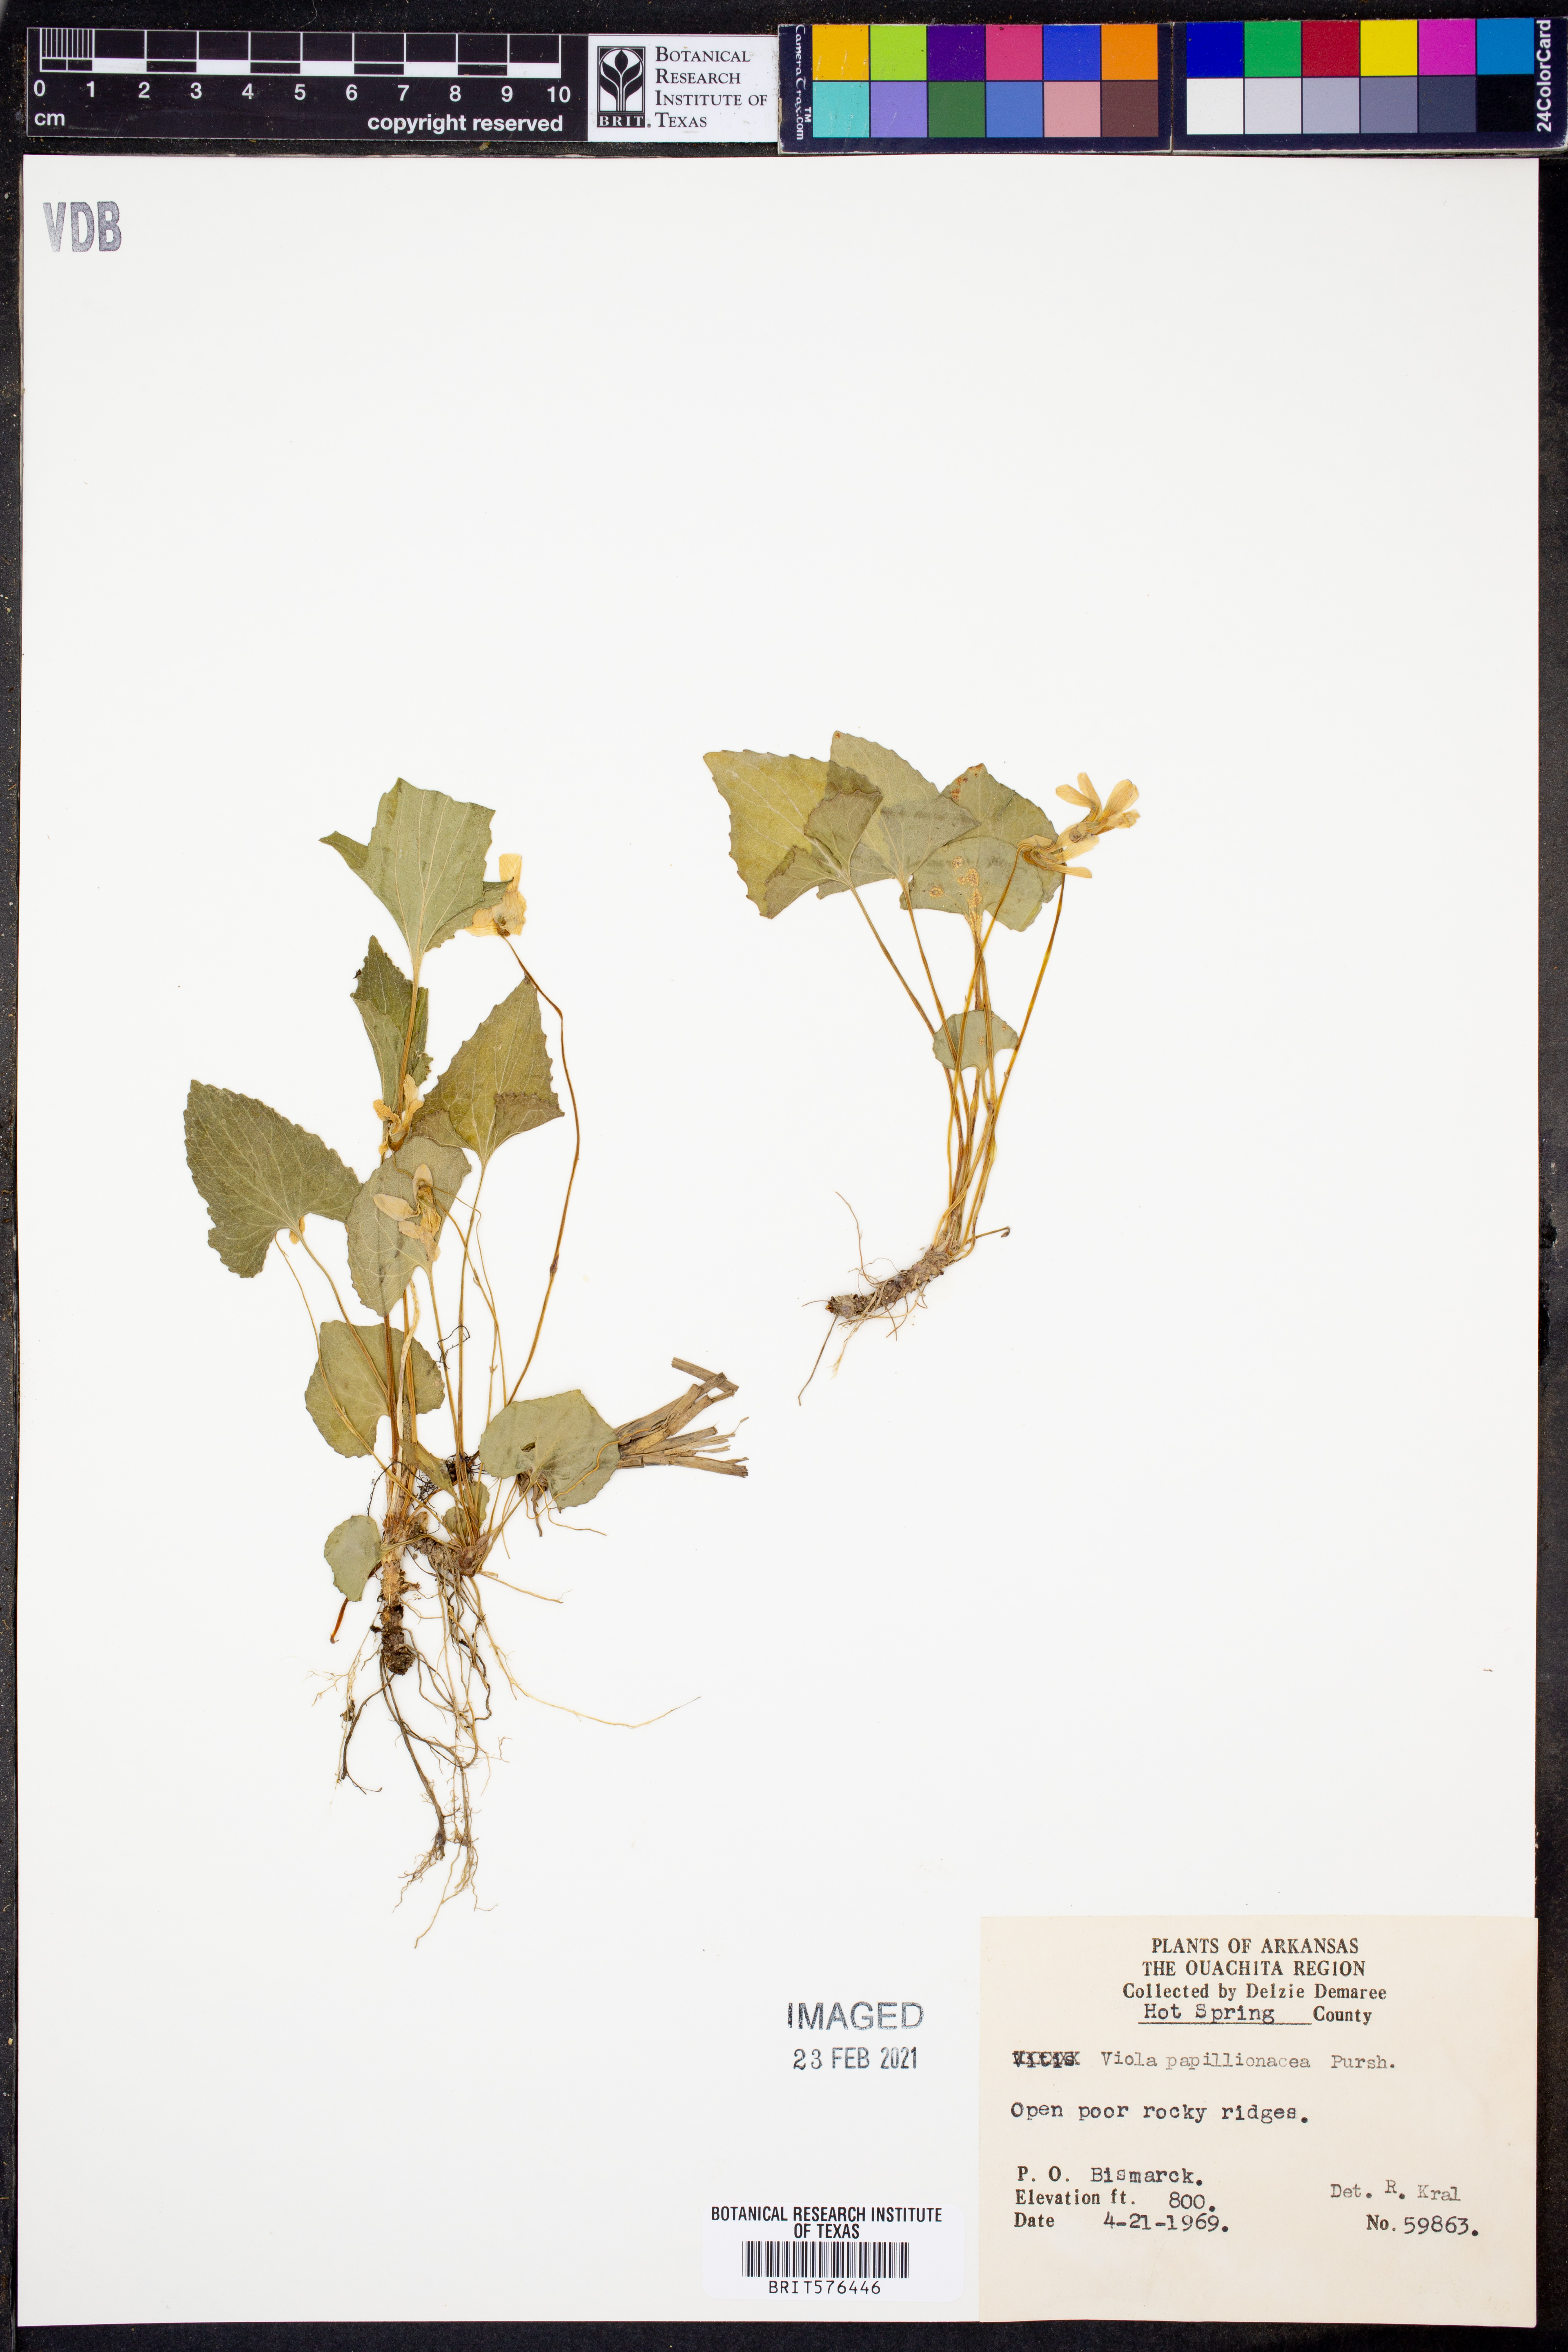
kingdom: Plantae
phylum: Tracheophyta
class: Magnoliopsida
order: Malpighiales
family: Violaceae
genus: Viola
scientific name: Viola sororia
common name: Dooryard violet
